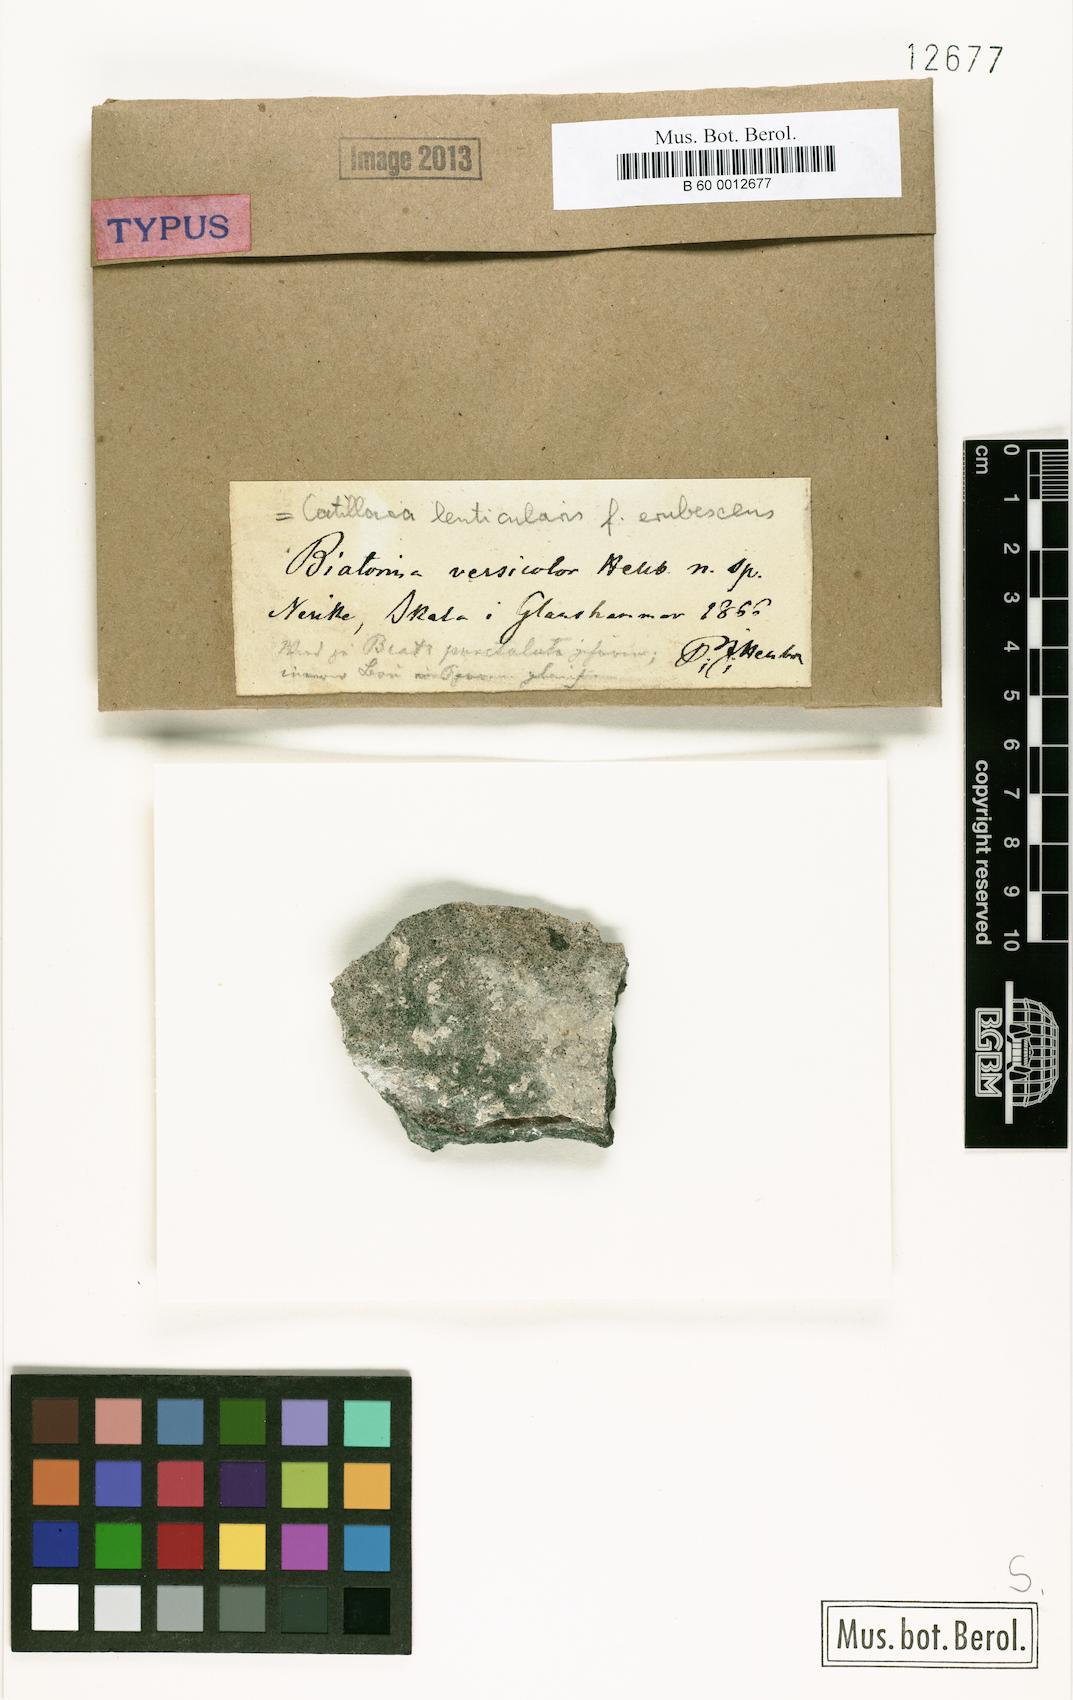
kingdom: Fungi
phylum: Ascomycota
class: Lecanoromycetes
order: Lecanorales
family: Catillariaceae
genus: Catillaria
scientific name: Catillaria lenticularis
